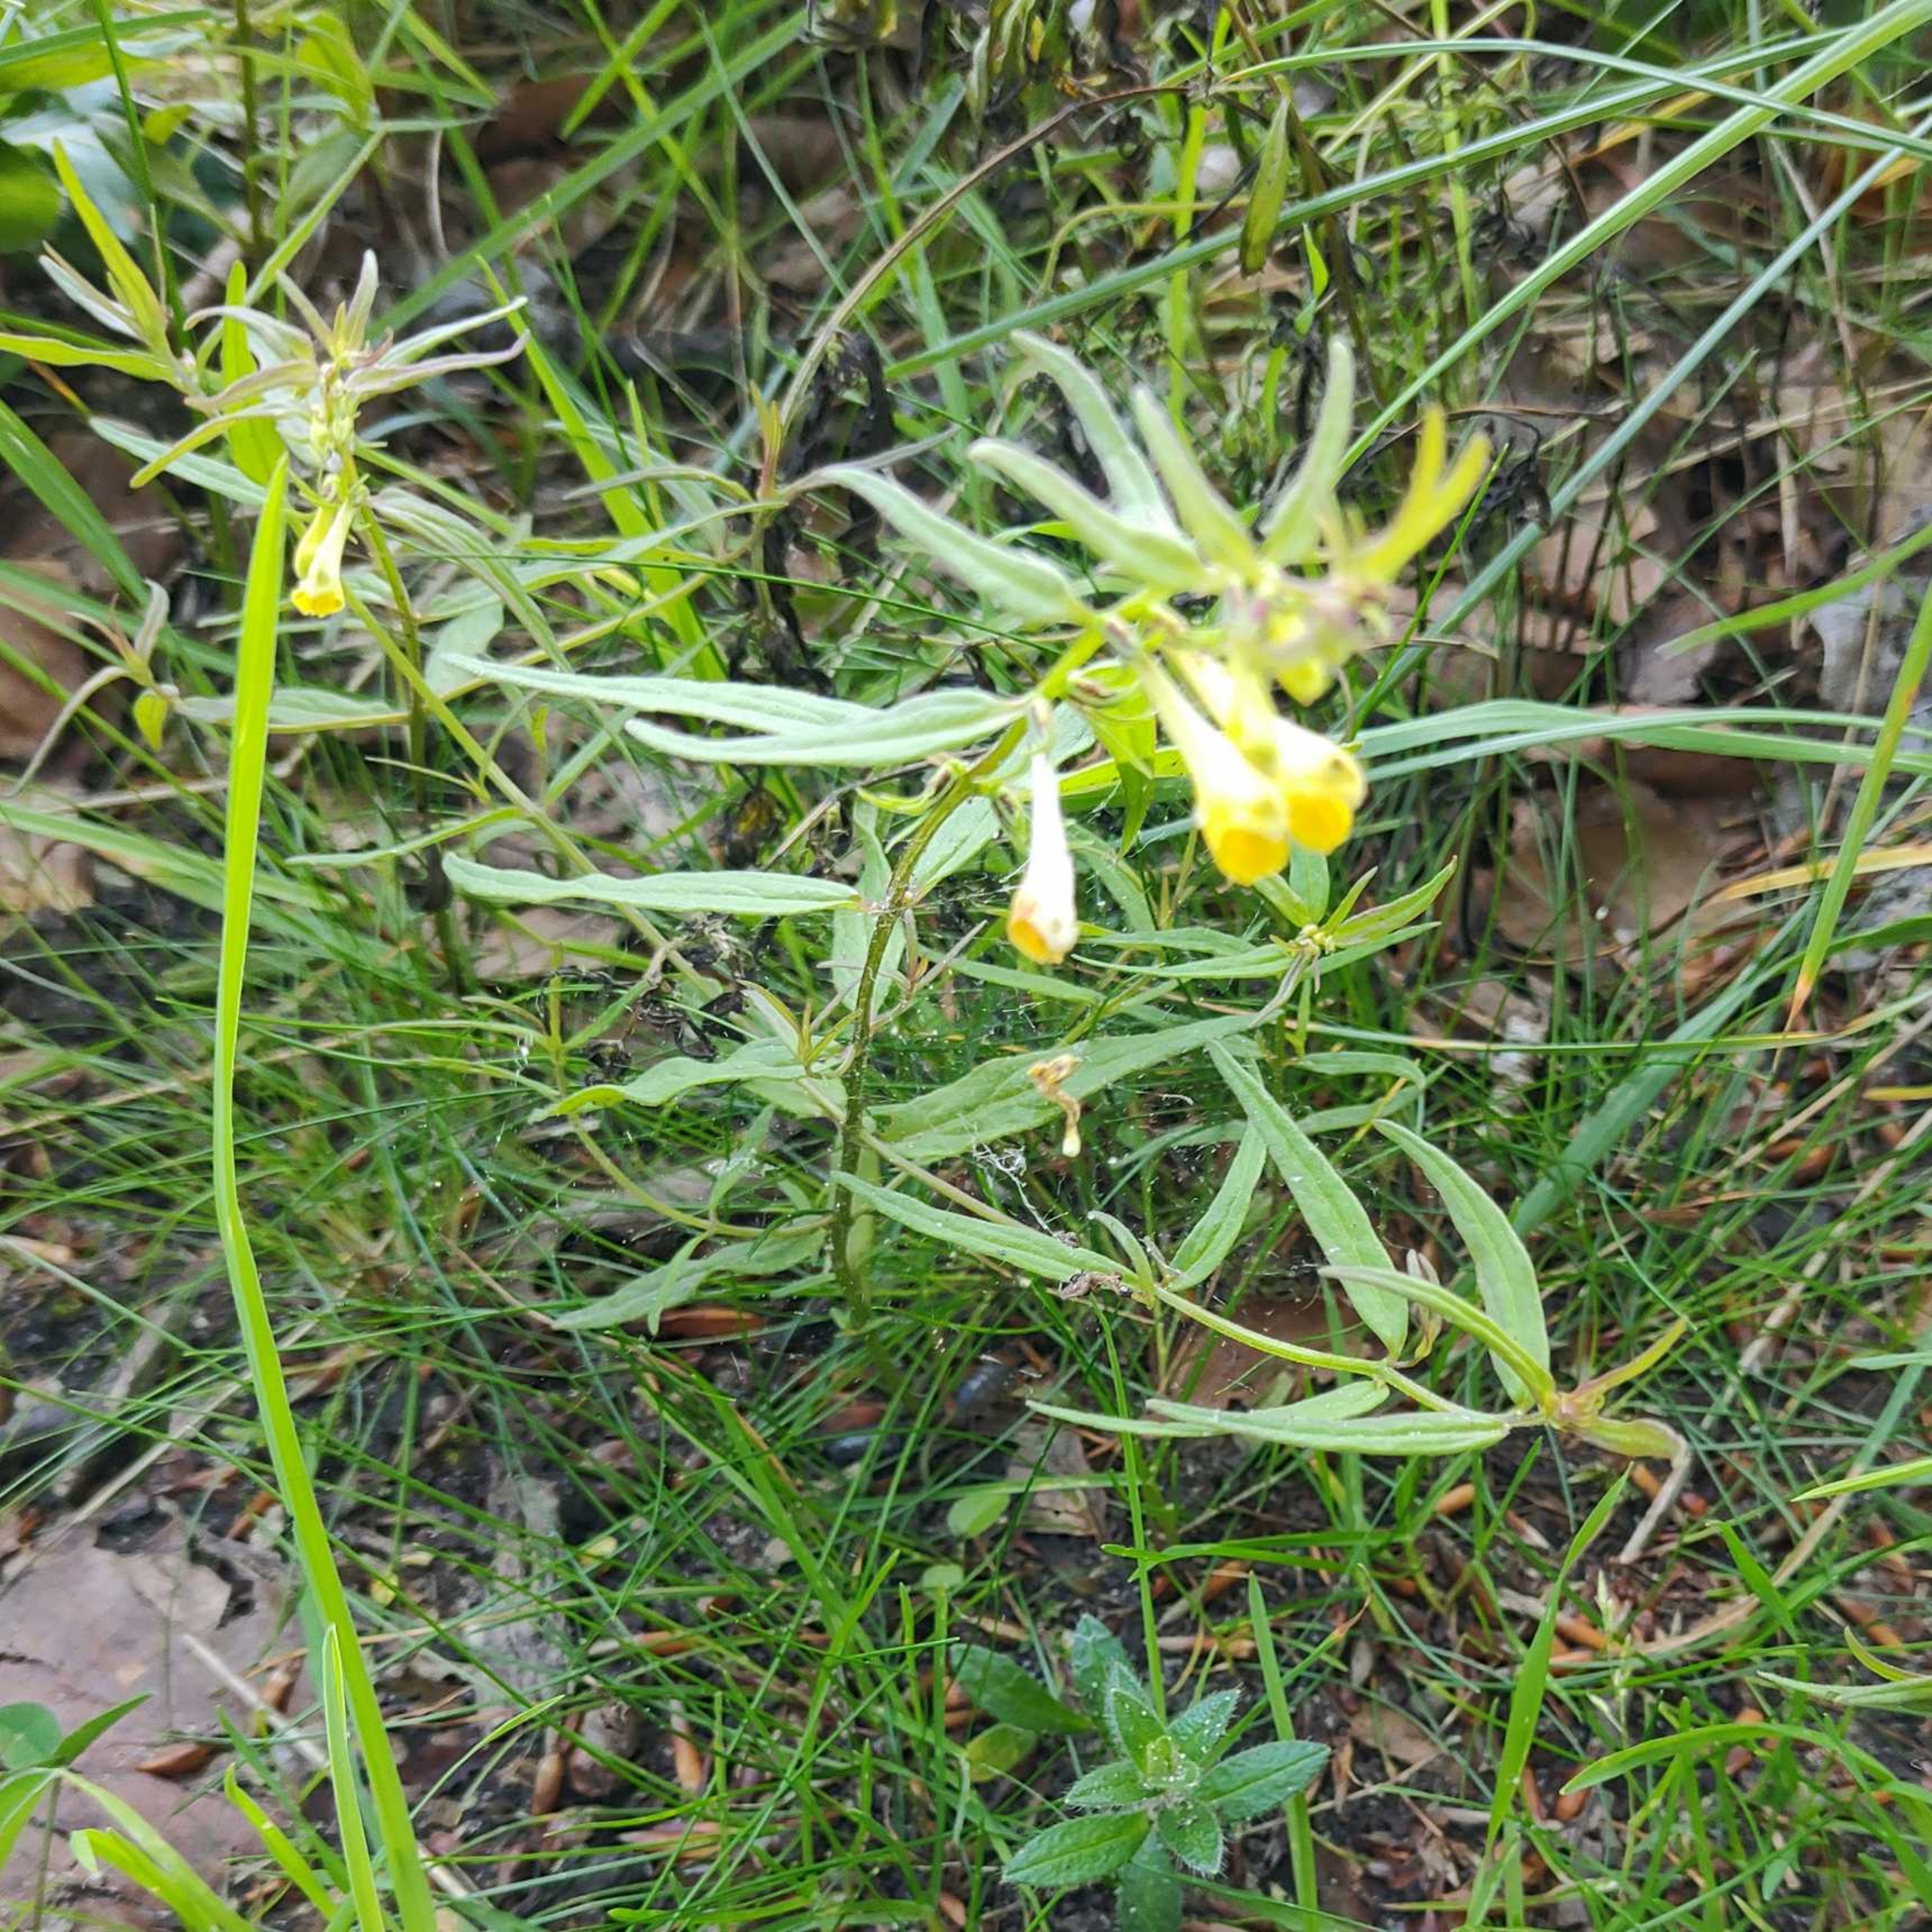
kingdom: Plantae
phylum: Tracheophyta
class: Magnoliopsida
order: Lamiales
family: Orobanchaceae
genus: Melampyrum
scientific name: Melampyrum pratense
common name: Almindelig kohvede
